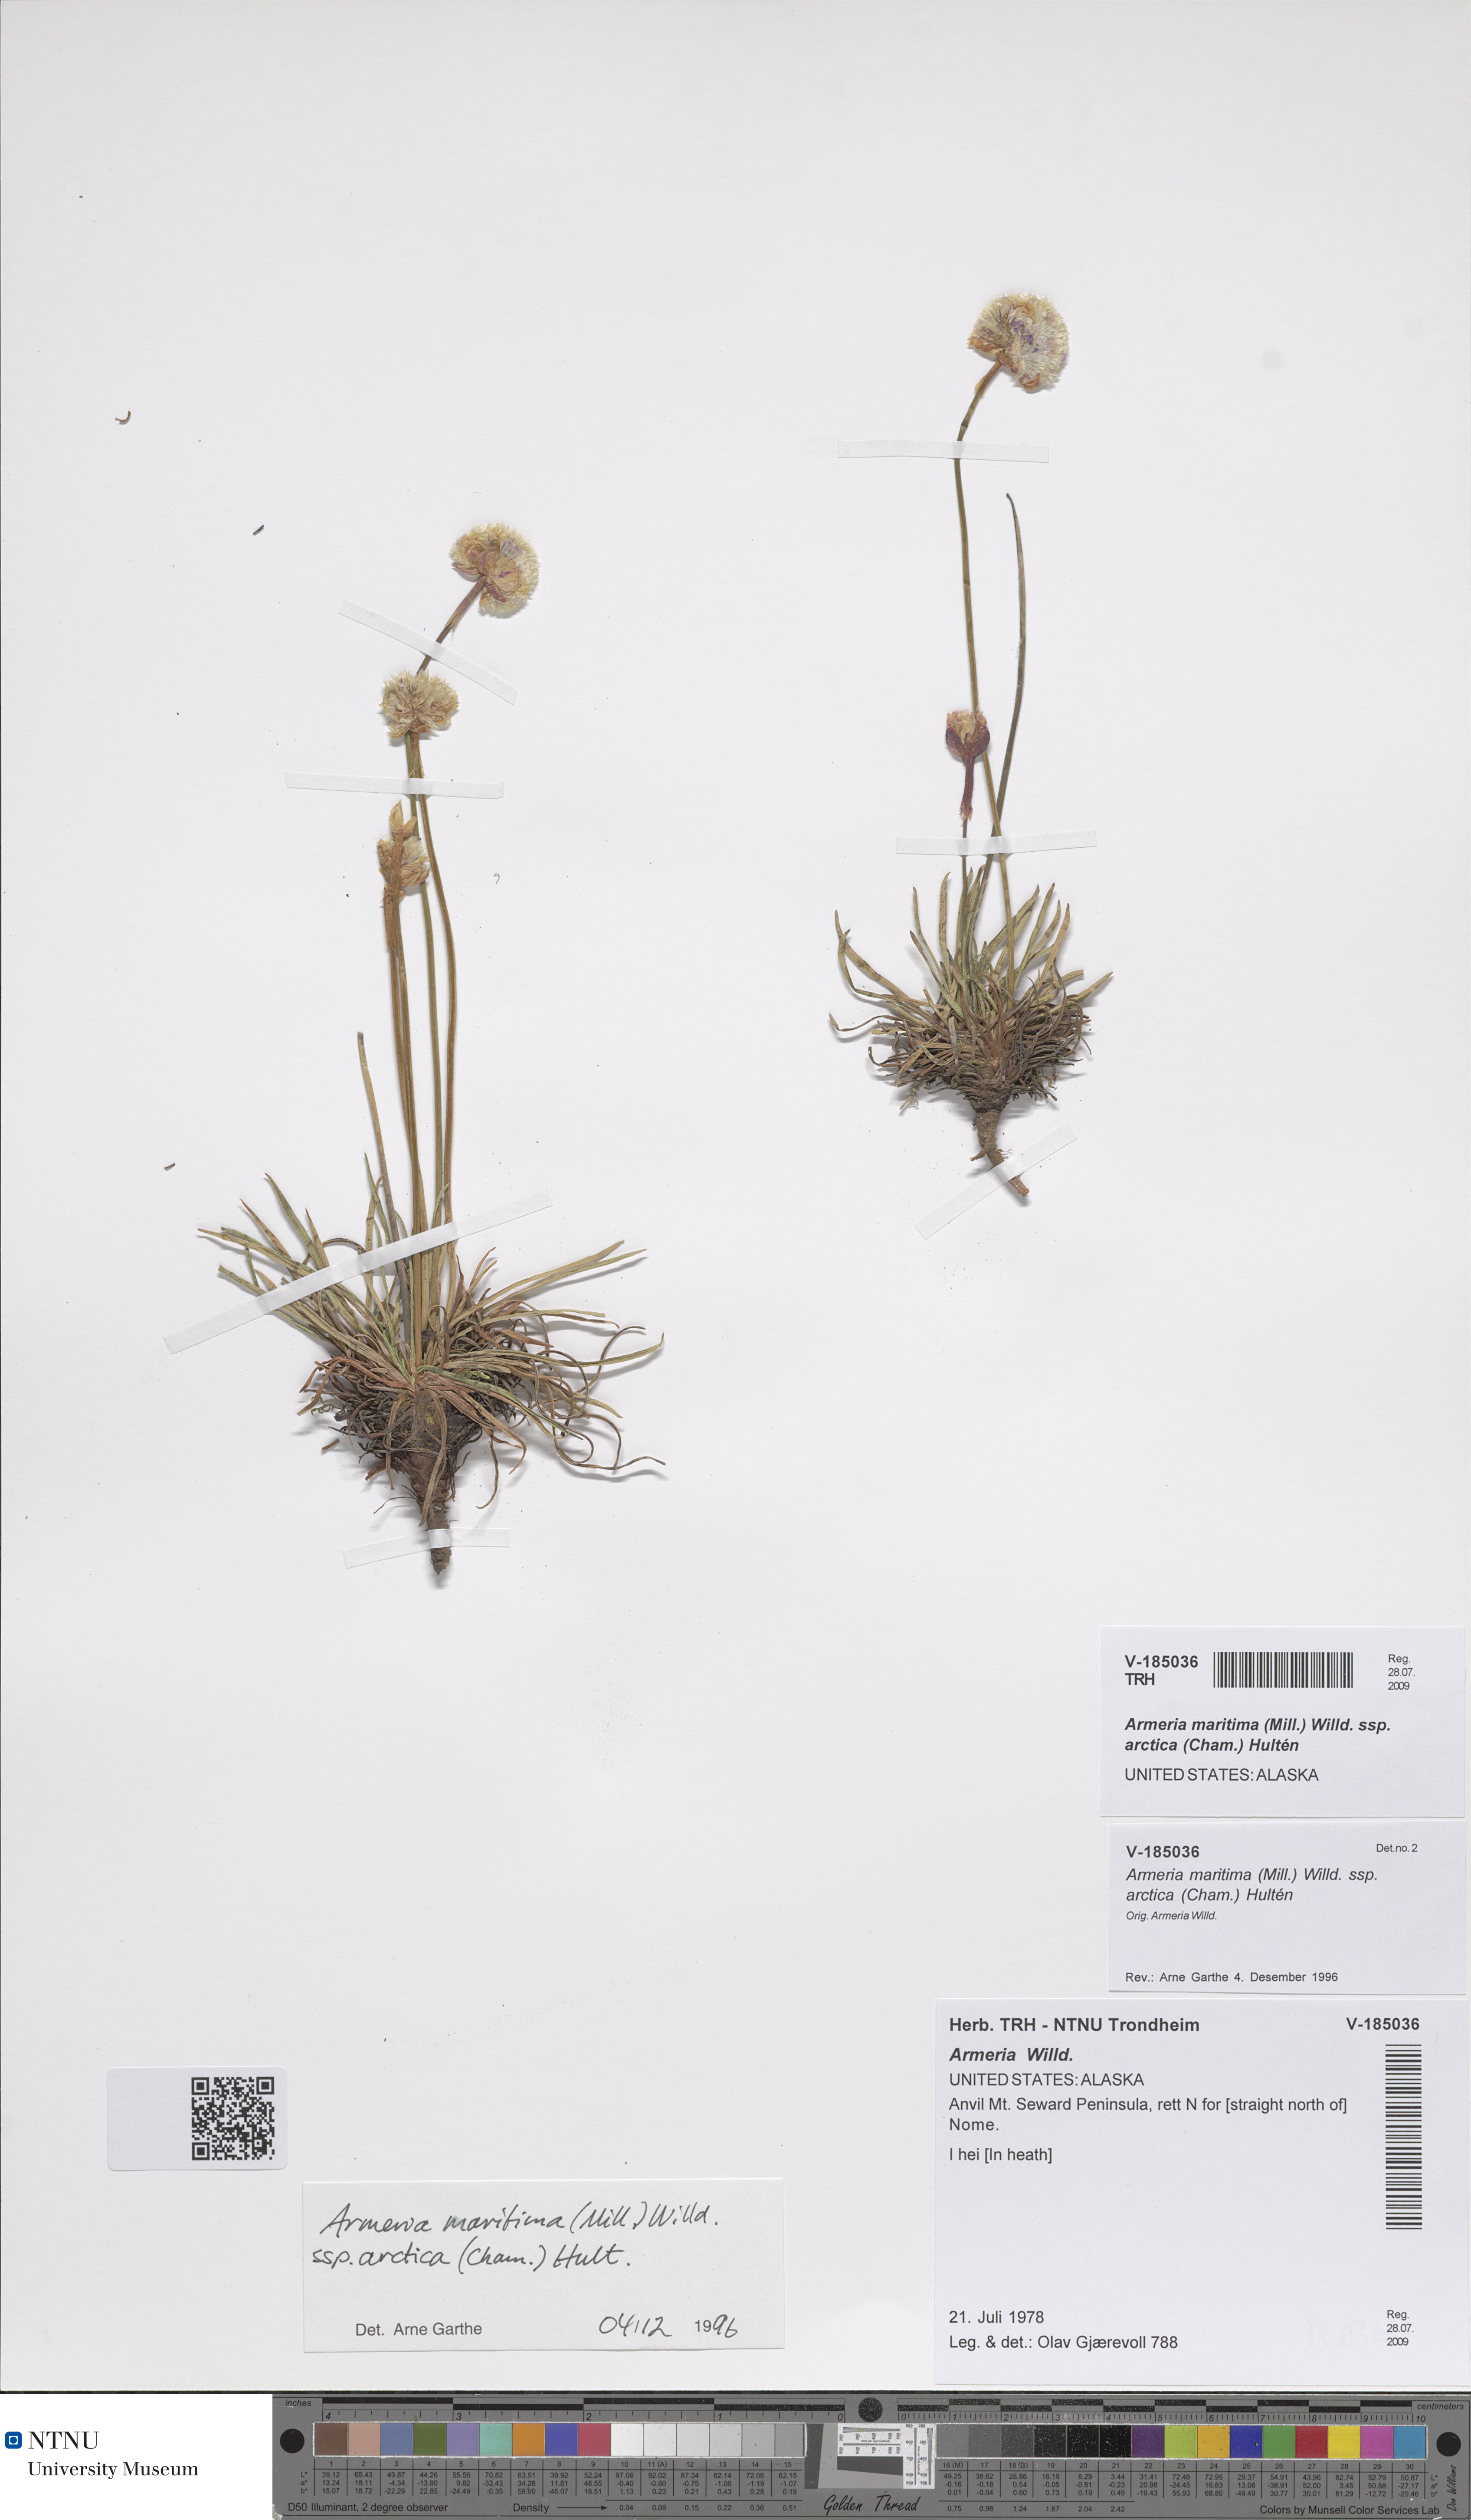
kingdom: Plantae
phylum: Tracheophyta
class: Magnoliopsida
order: Caryophyllales
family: Plumbaginaceae
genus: Armeria
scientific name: Armeria maritima
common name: Thrift
